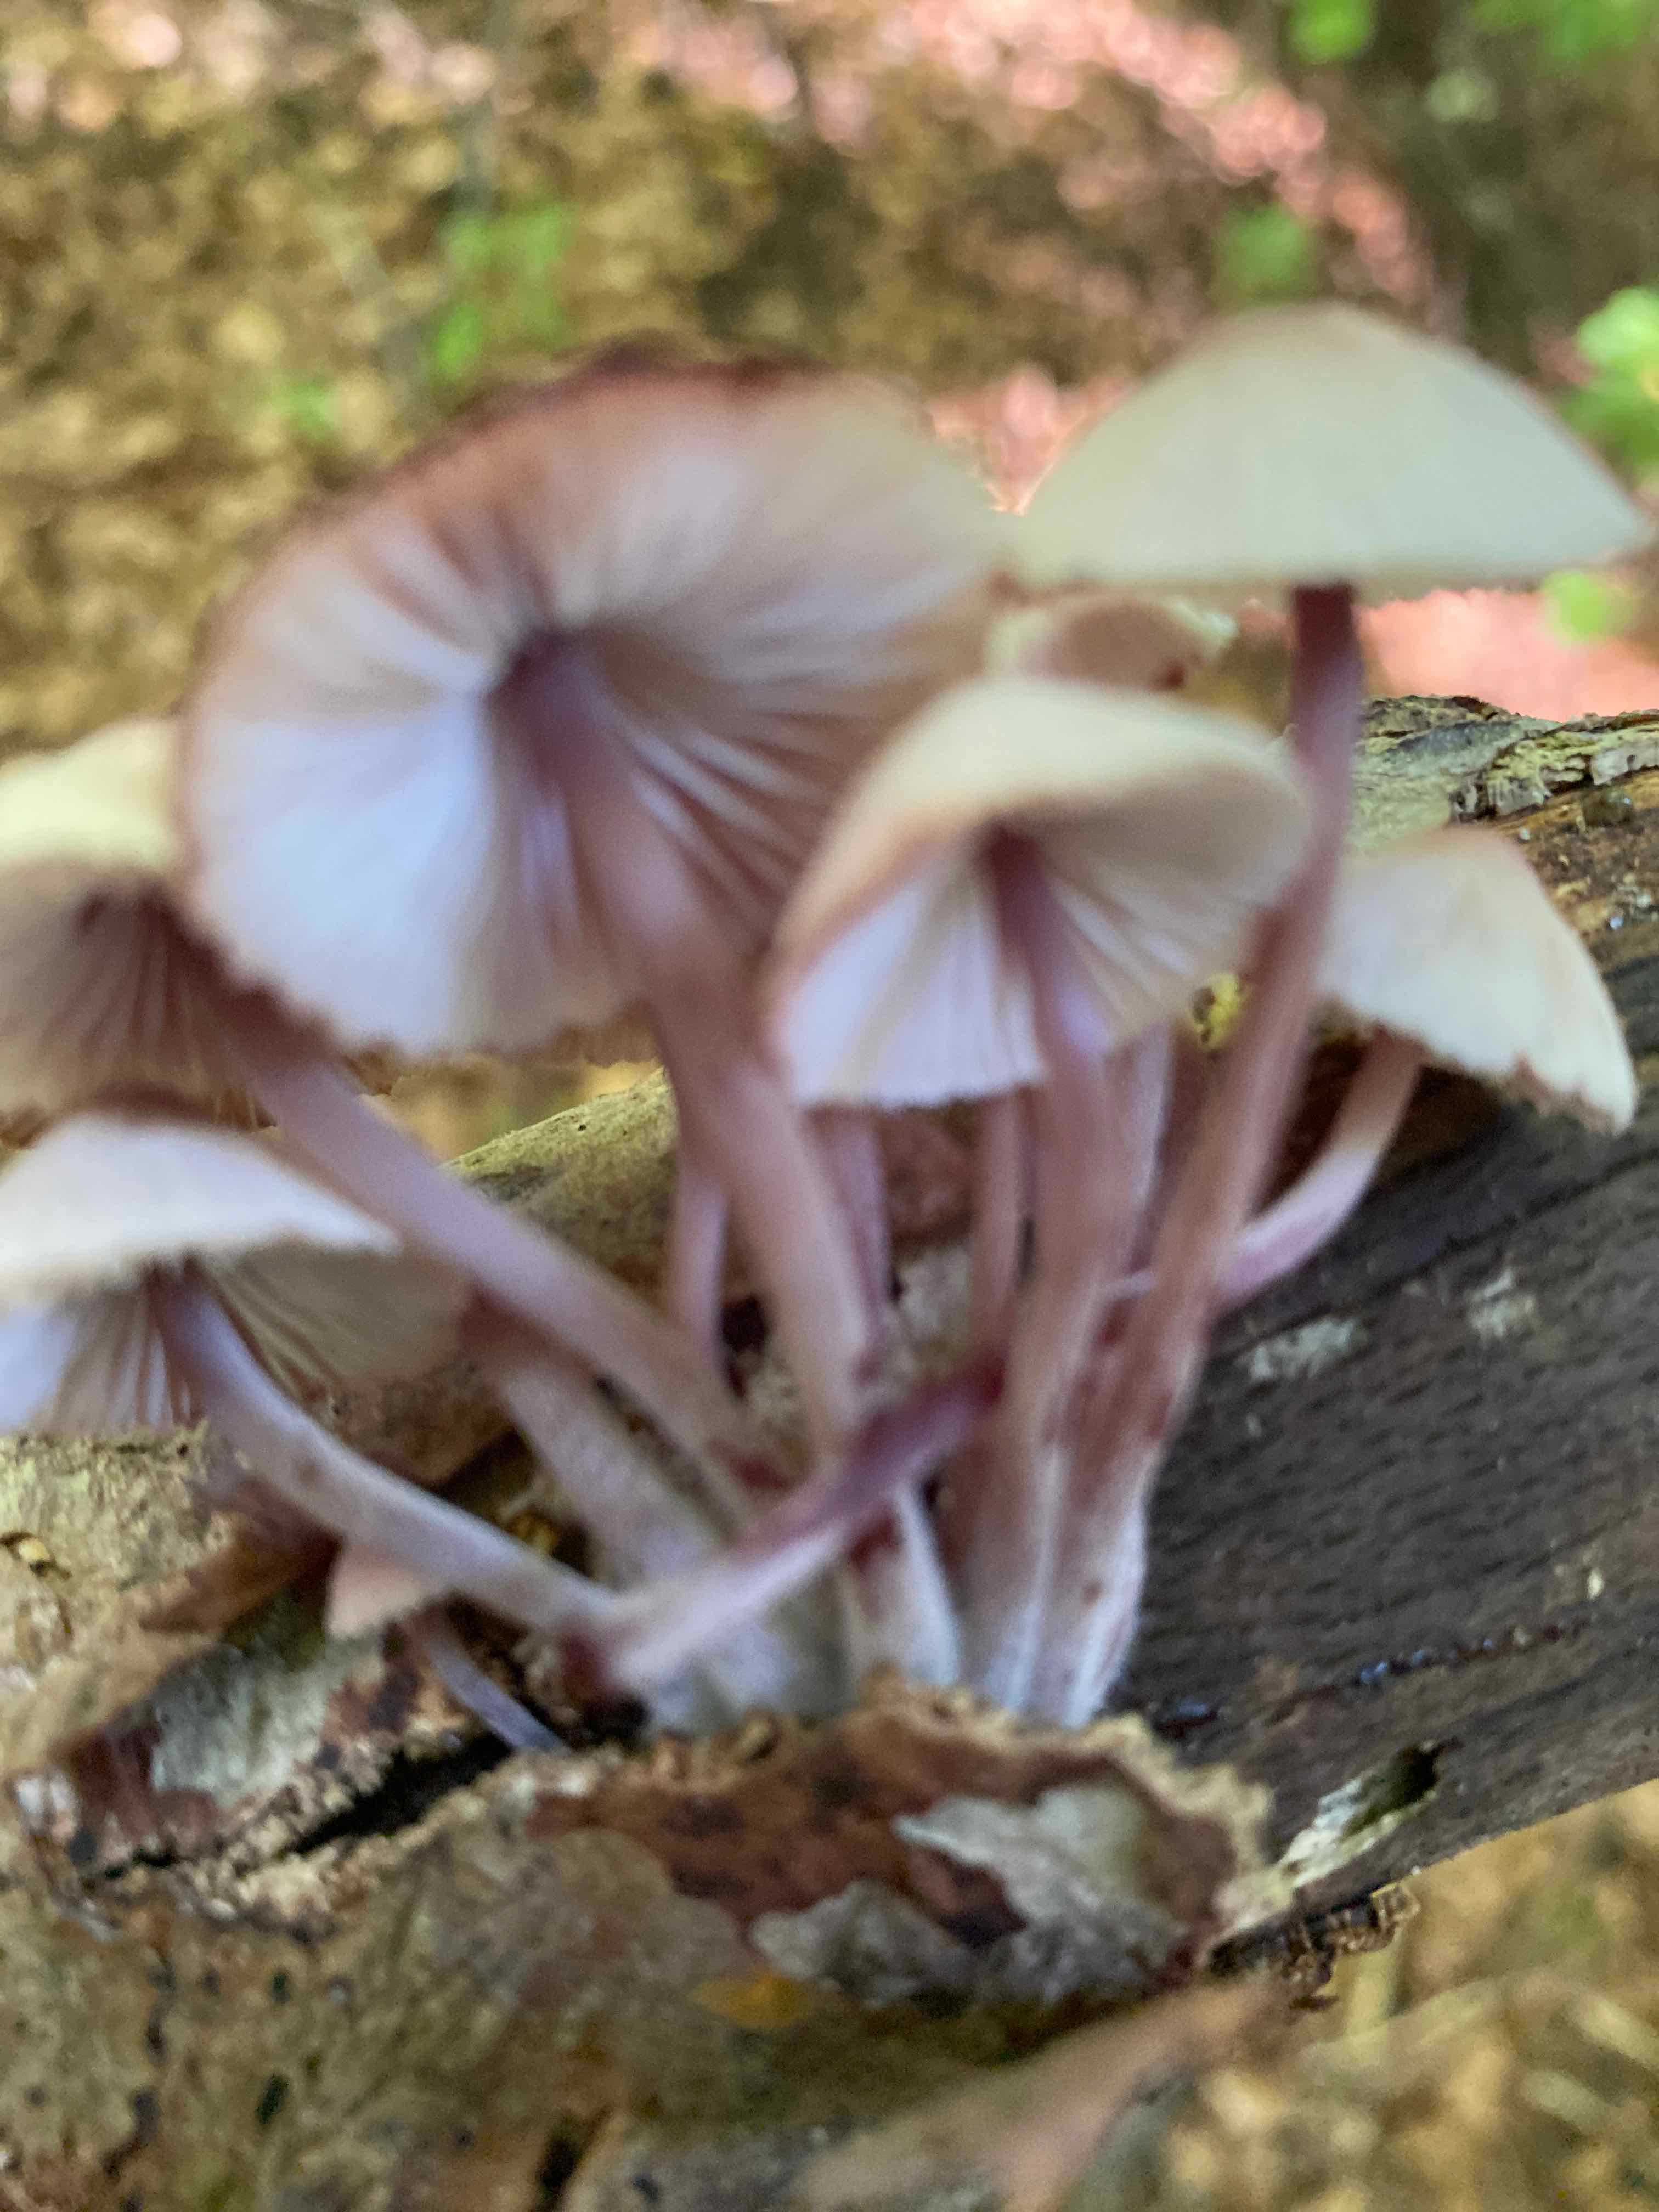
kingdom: Fungi
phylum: Basidiomycota
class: Agaricomycetes
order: Agaricales
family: Mycenaceae
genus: Mycena
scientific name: Mycena haematopus
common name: blødende huesvamp
